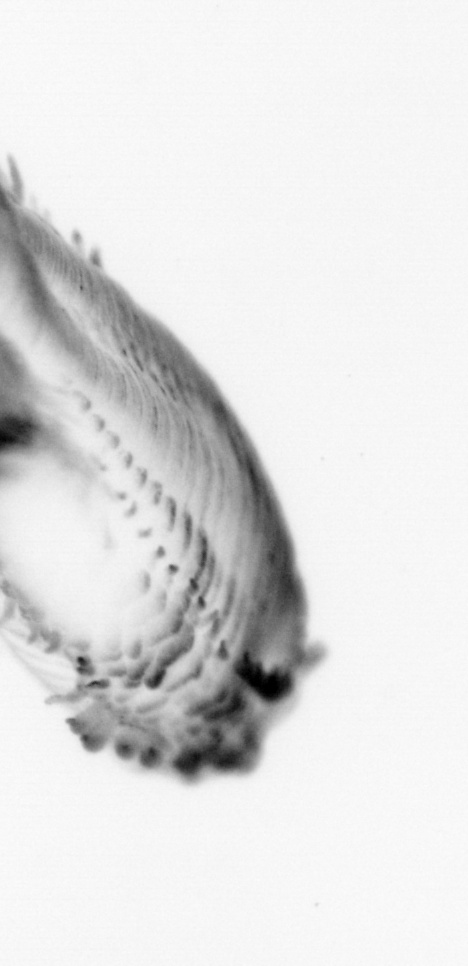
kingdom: Animalia
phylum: Annelida
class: Polychaeta
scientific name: Polychaeta
